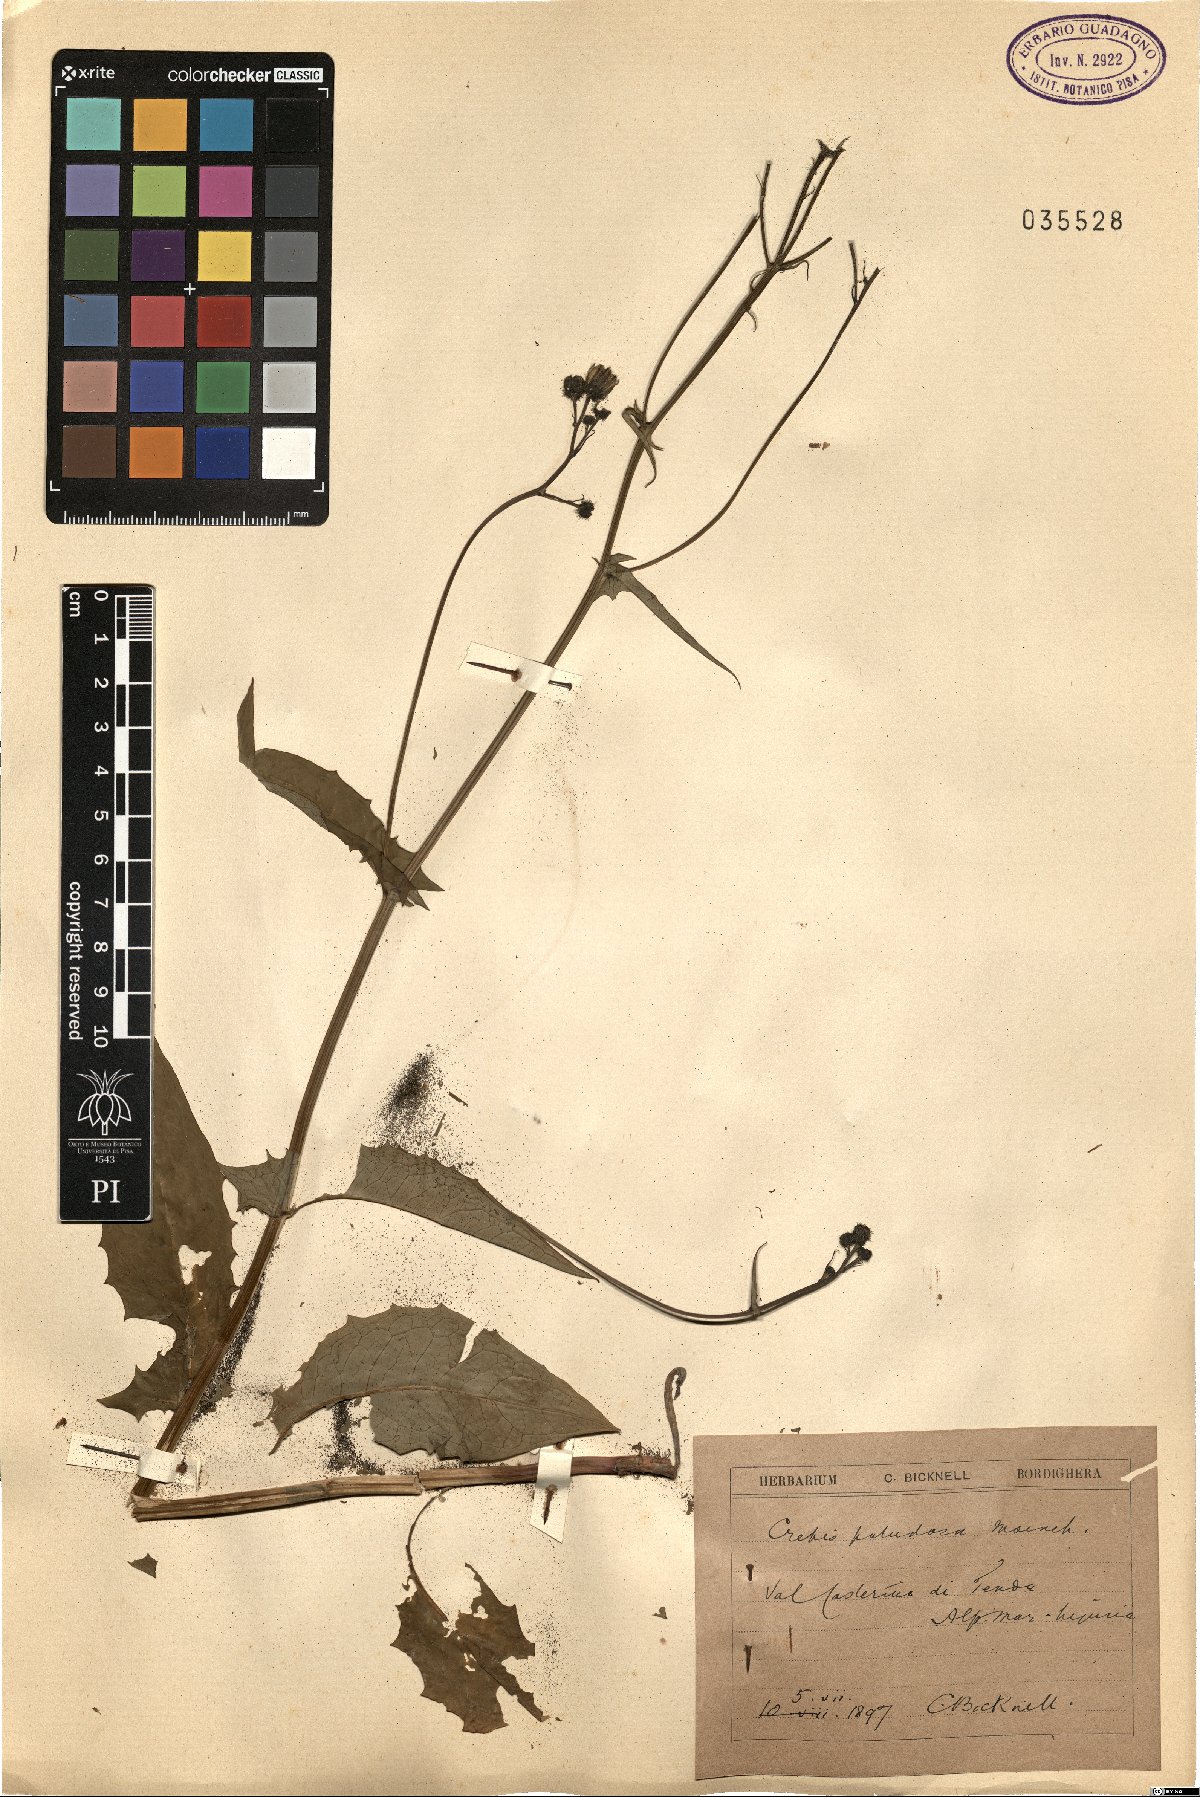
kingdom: Plantae
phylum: Tracheophyta
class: Magnoliopsida
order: Asterales
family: Asteraceae
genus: Crepis
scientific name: Crepis paludosa
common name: Marsh hawk's-beard
